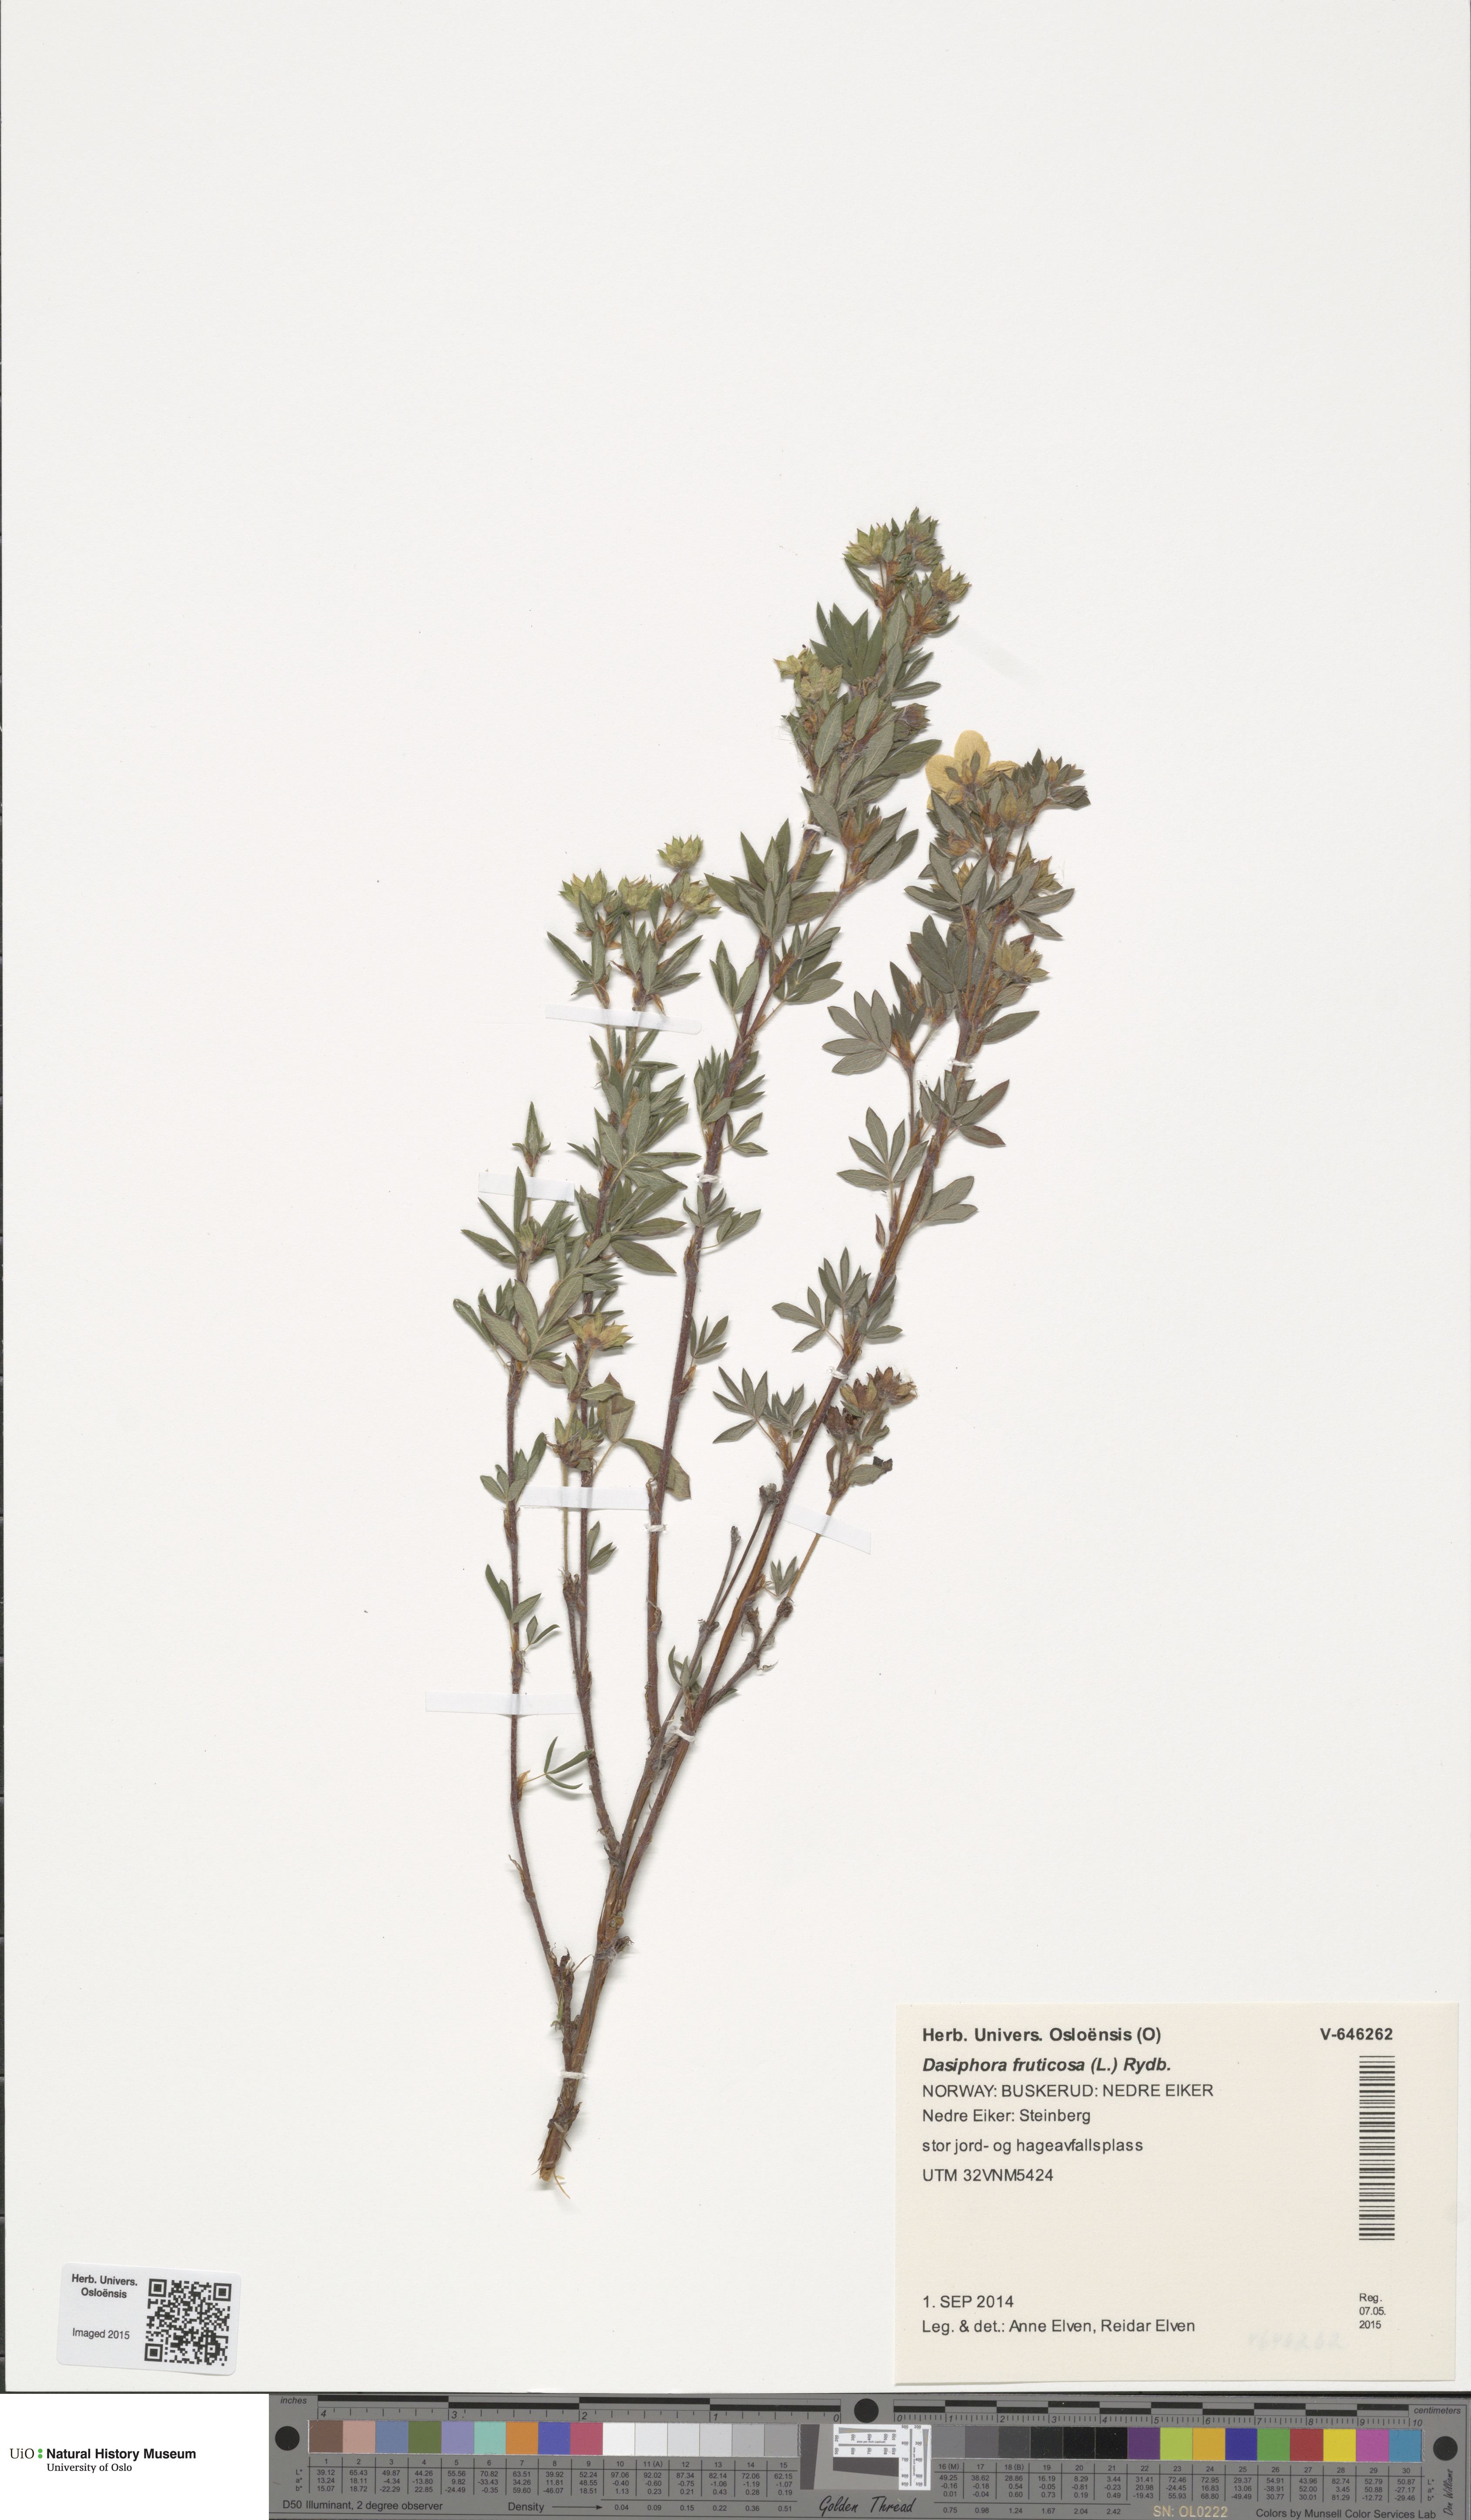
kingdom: Plantae
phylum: Tracheophyta
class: Magnoliopsida
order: Rosales
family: Rosaceae
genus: Dasiphora
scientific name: Dasiphora fruticosa
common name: Shrubby cinquefoil
